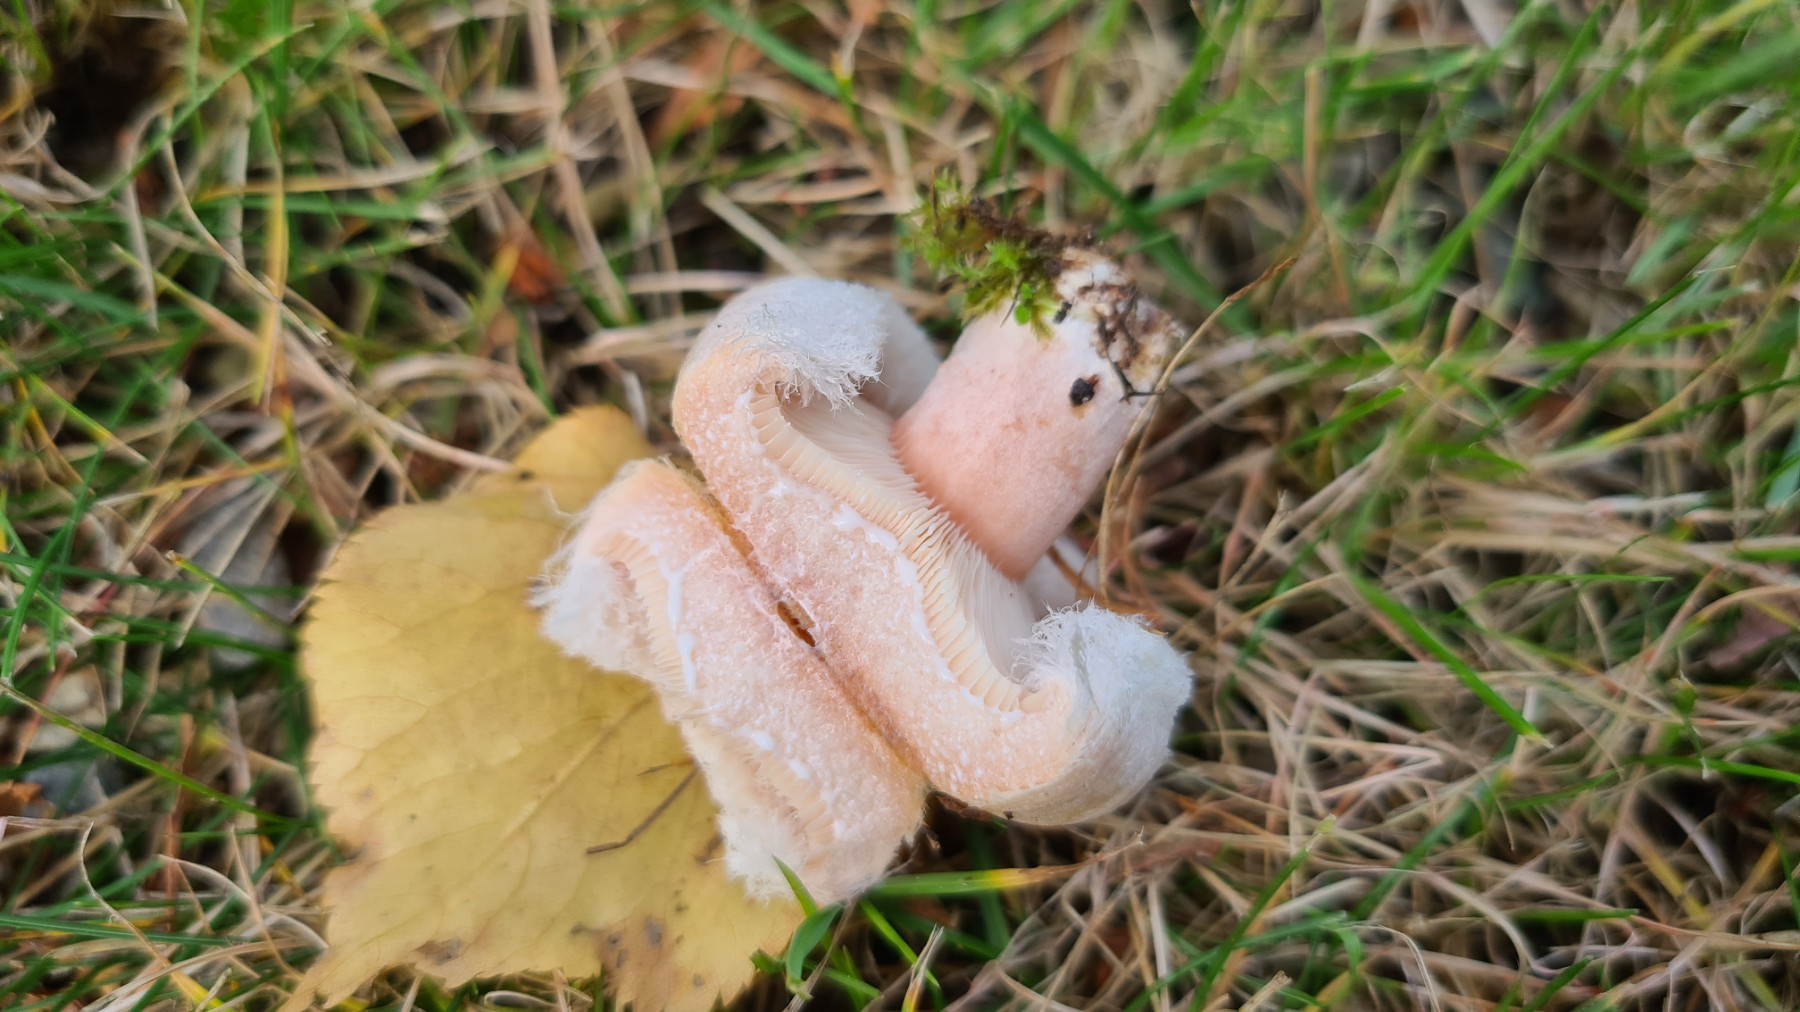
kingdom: Fungi
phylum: Basidiomycota
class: Agaricomycetes
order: Russulales
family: Russulaceae
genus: Lactarius
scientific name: Lactarius torminosus
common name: skægget mælkehat
